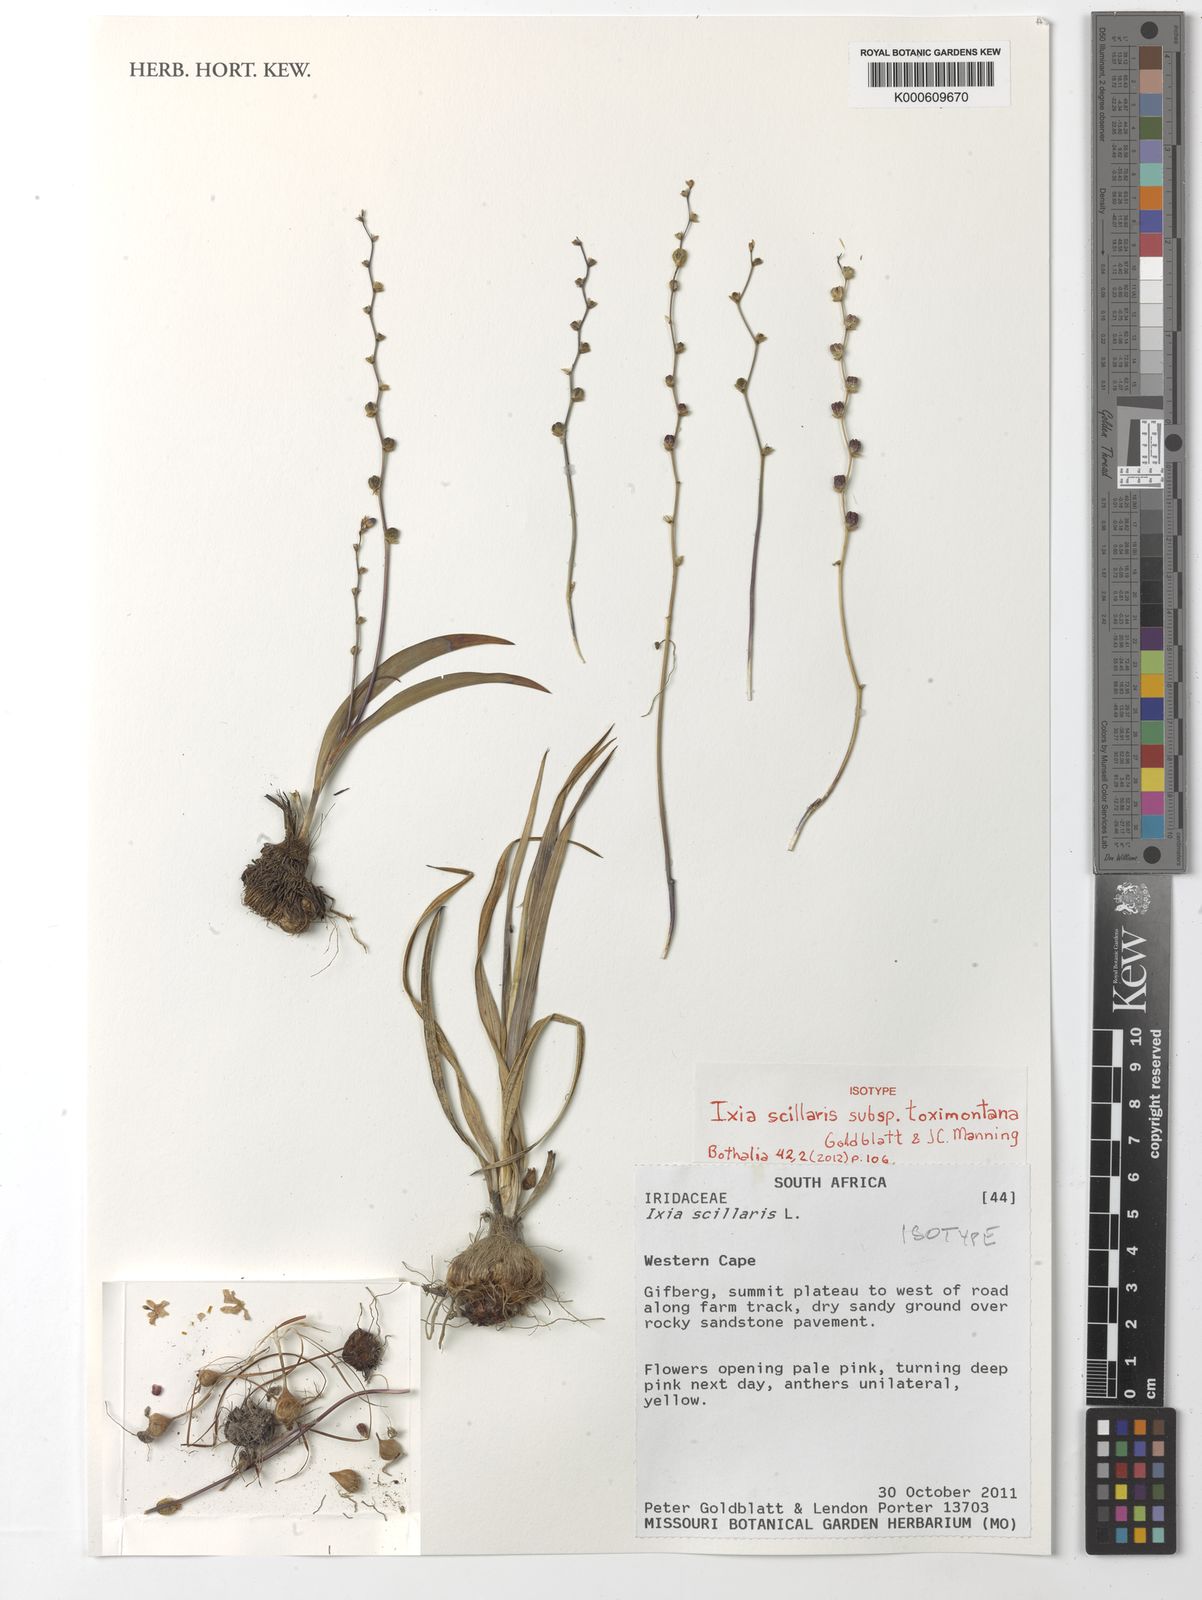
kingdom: Plantae
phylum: Tracheophyta
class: Liliopsida
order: Asparagales
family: Iridaceae
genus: Ixia
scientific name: Ixia scillaris
